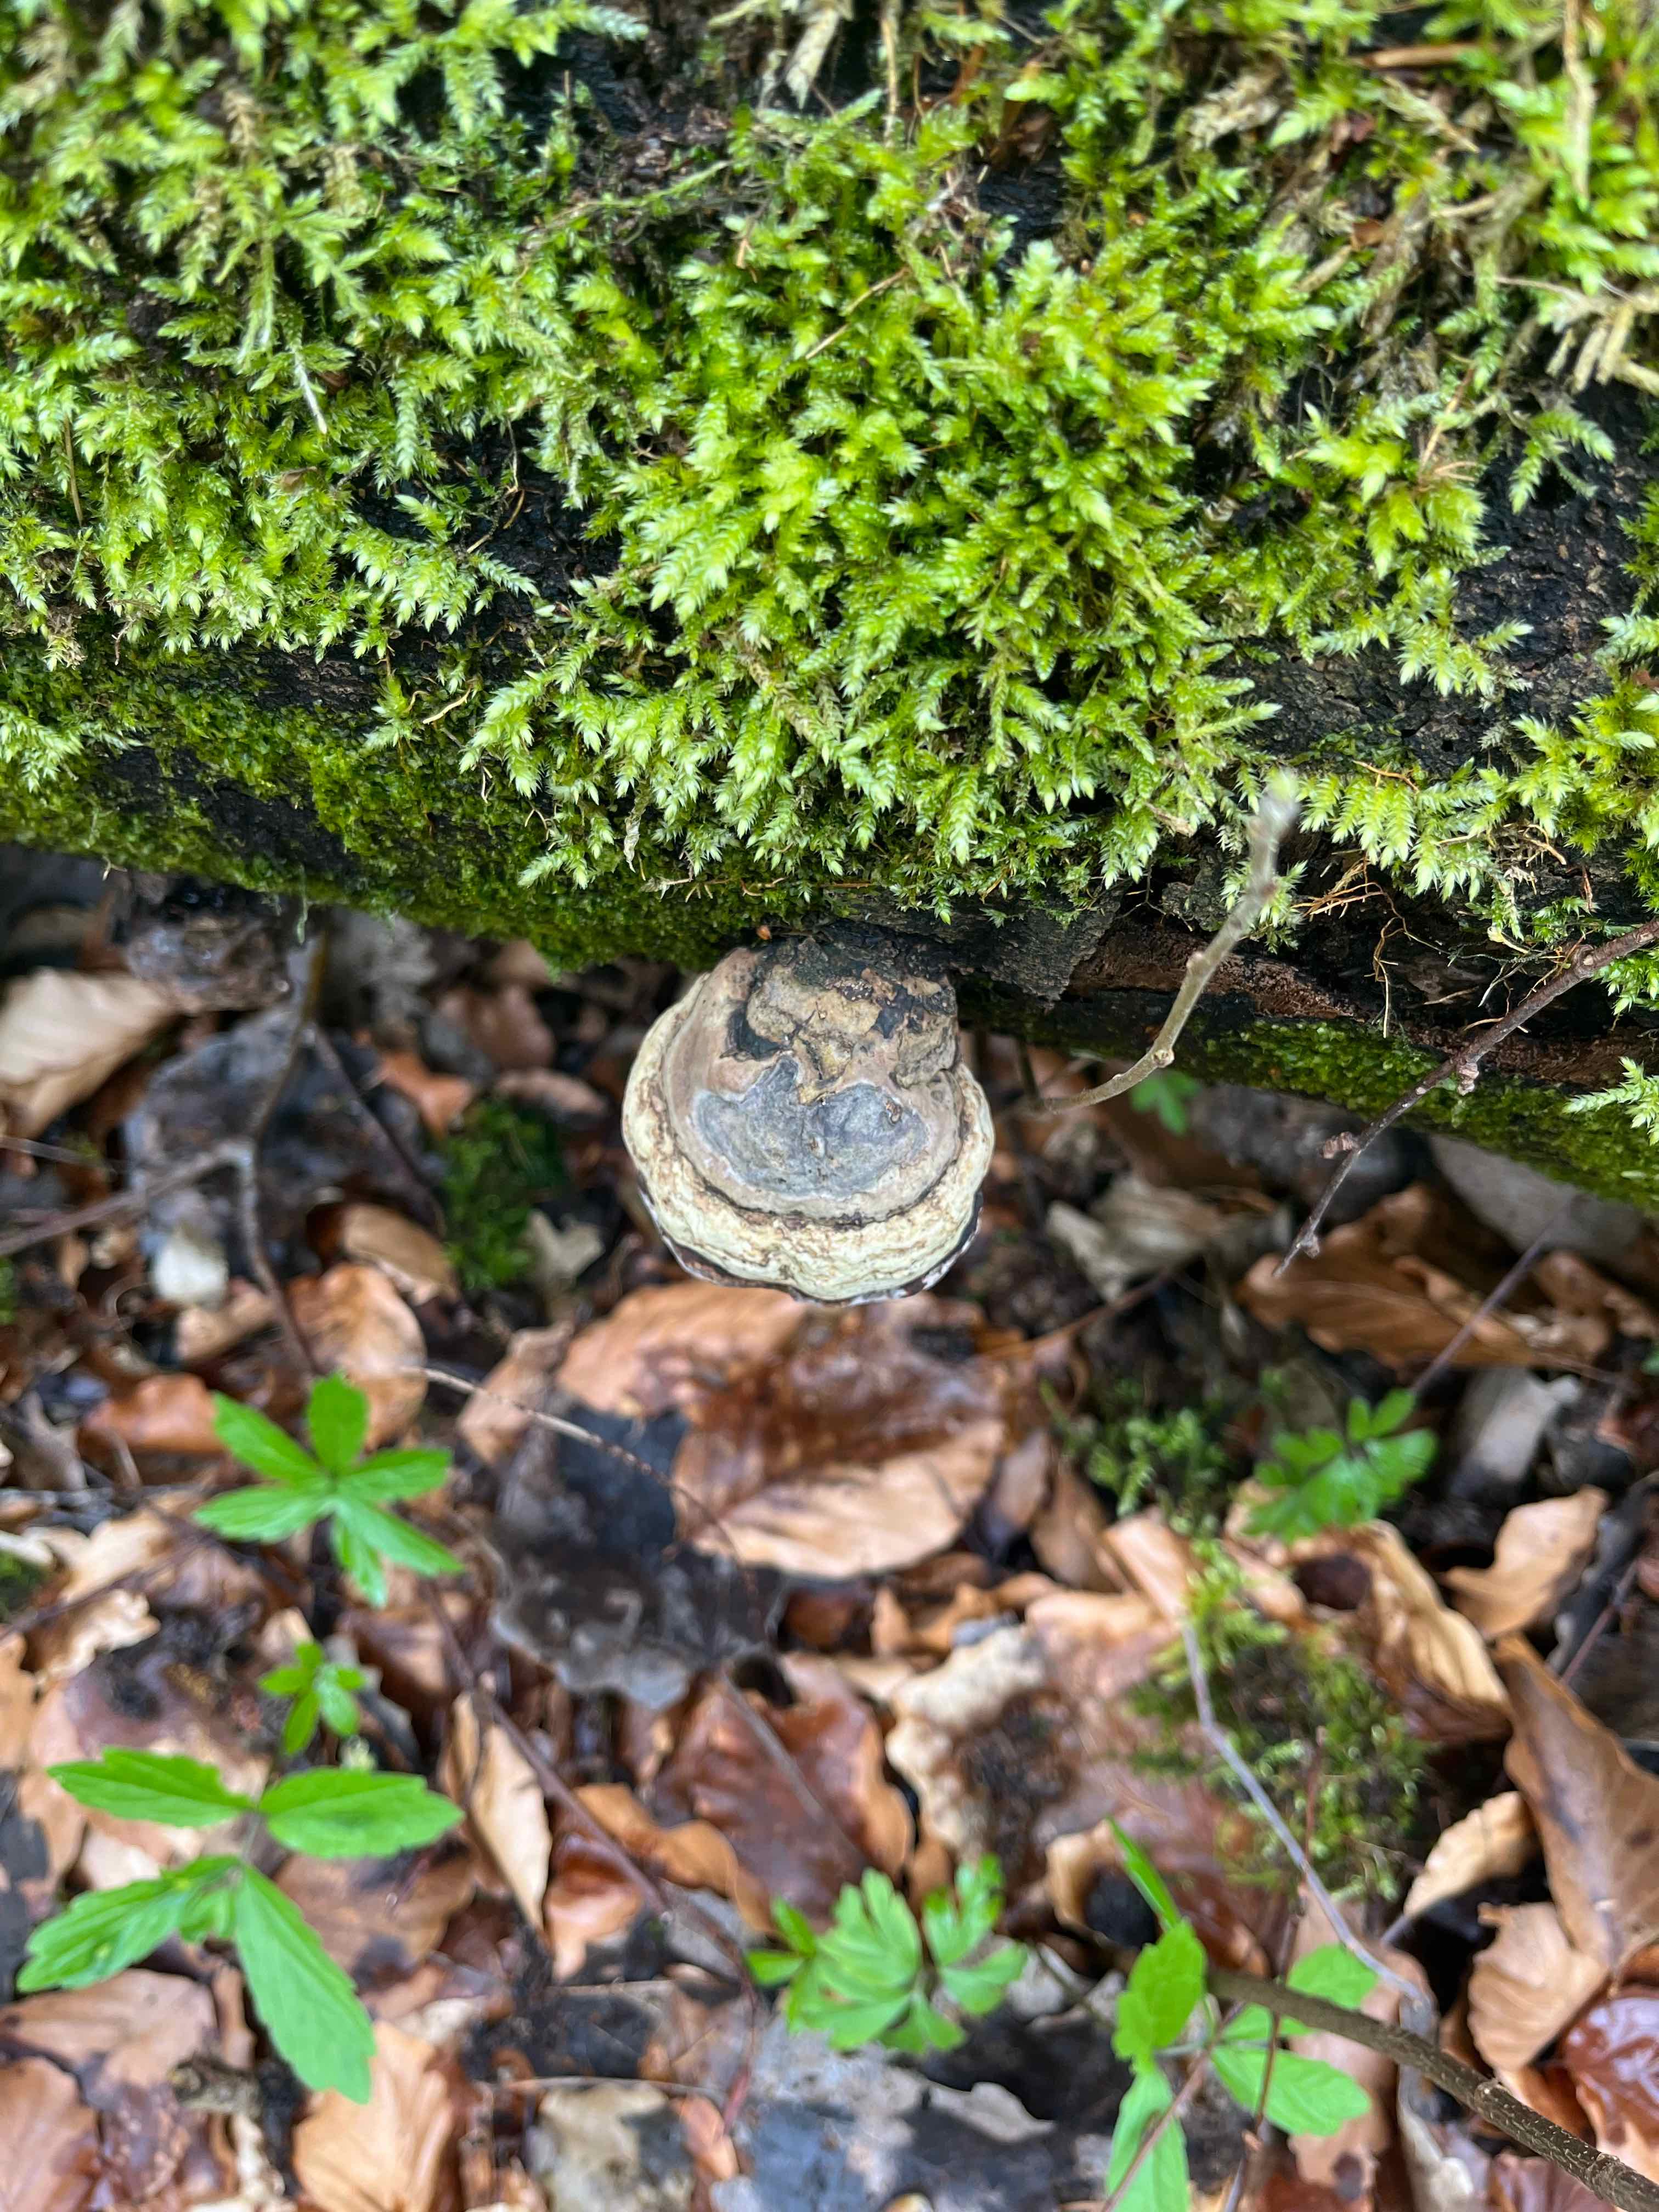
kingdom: Fungi
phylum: Basidiomycota
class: Agaricomycetes
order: Polyporales
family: Polyporaceae
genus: Fomes
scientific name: Fomes fomentarius
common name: tøndersvamp
